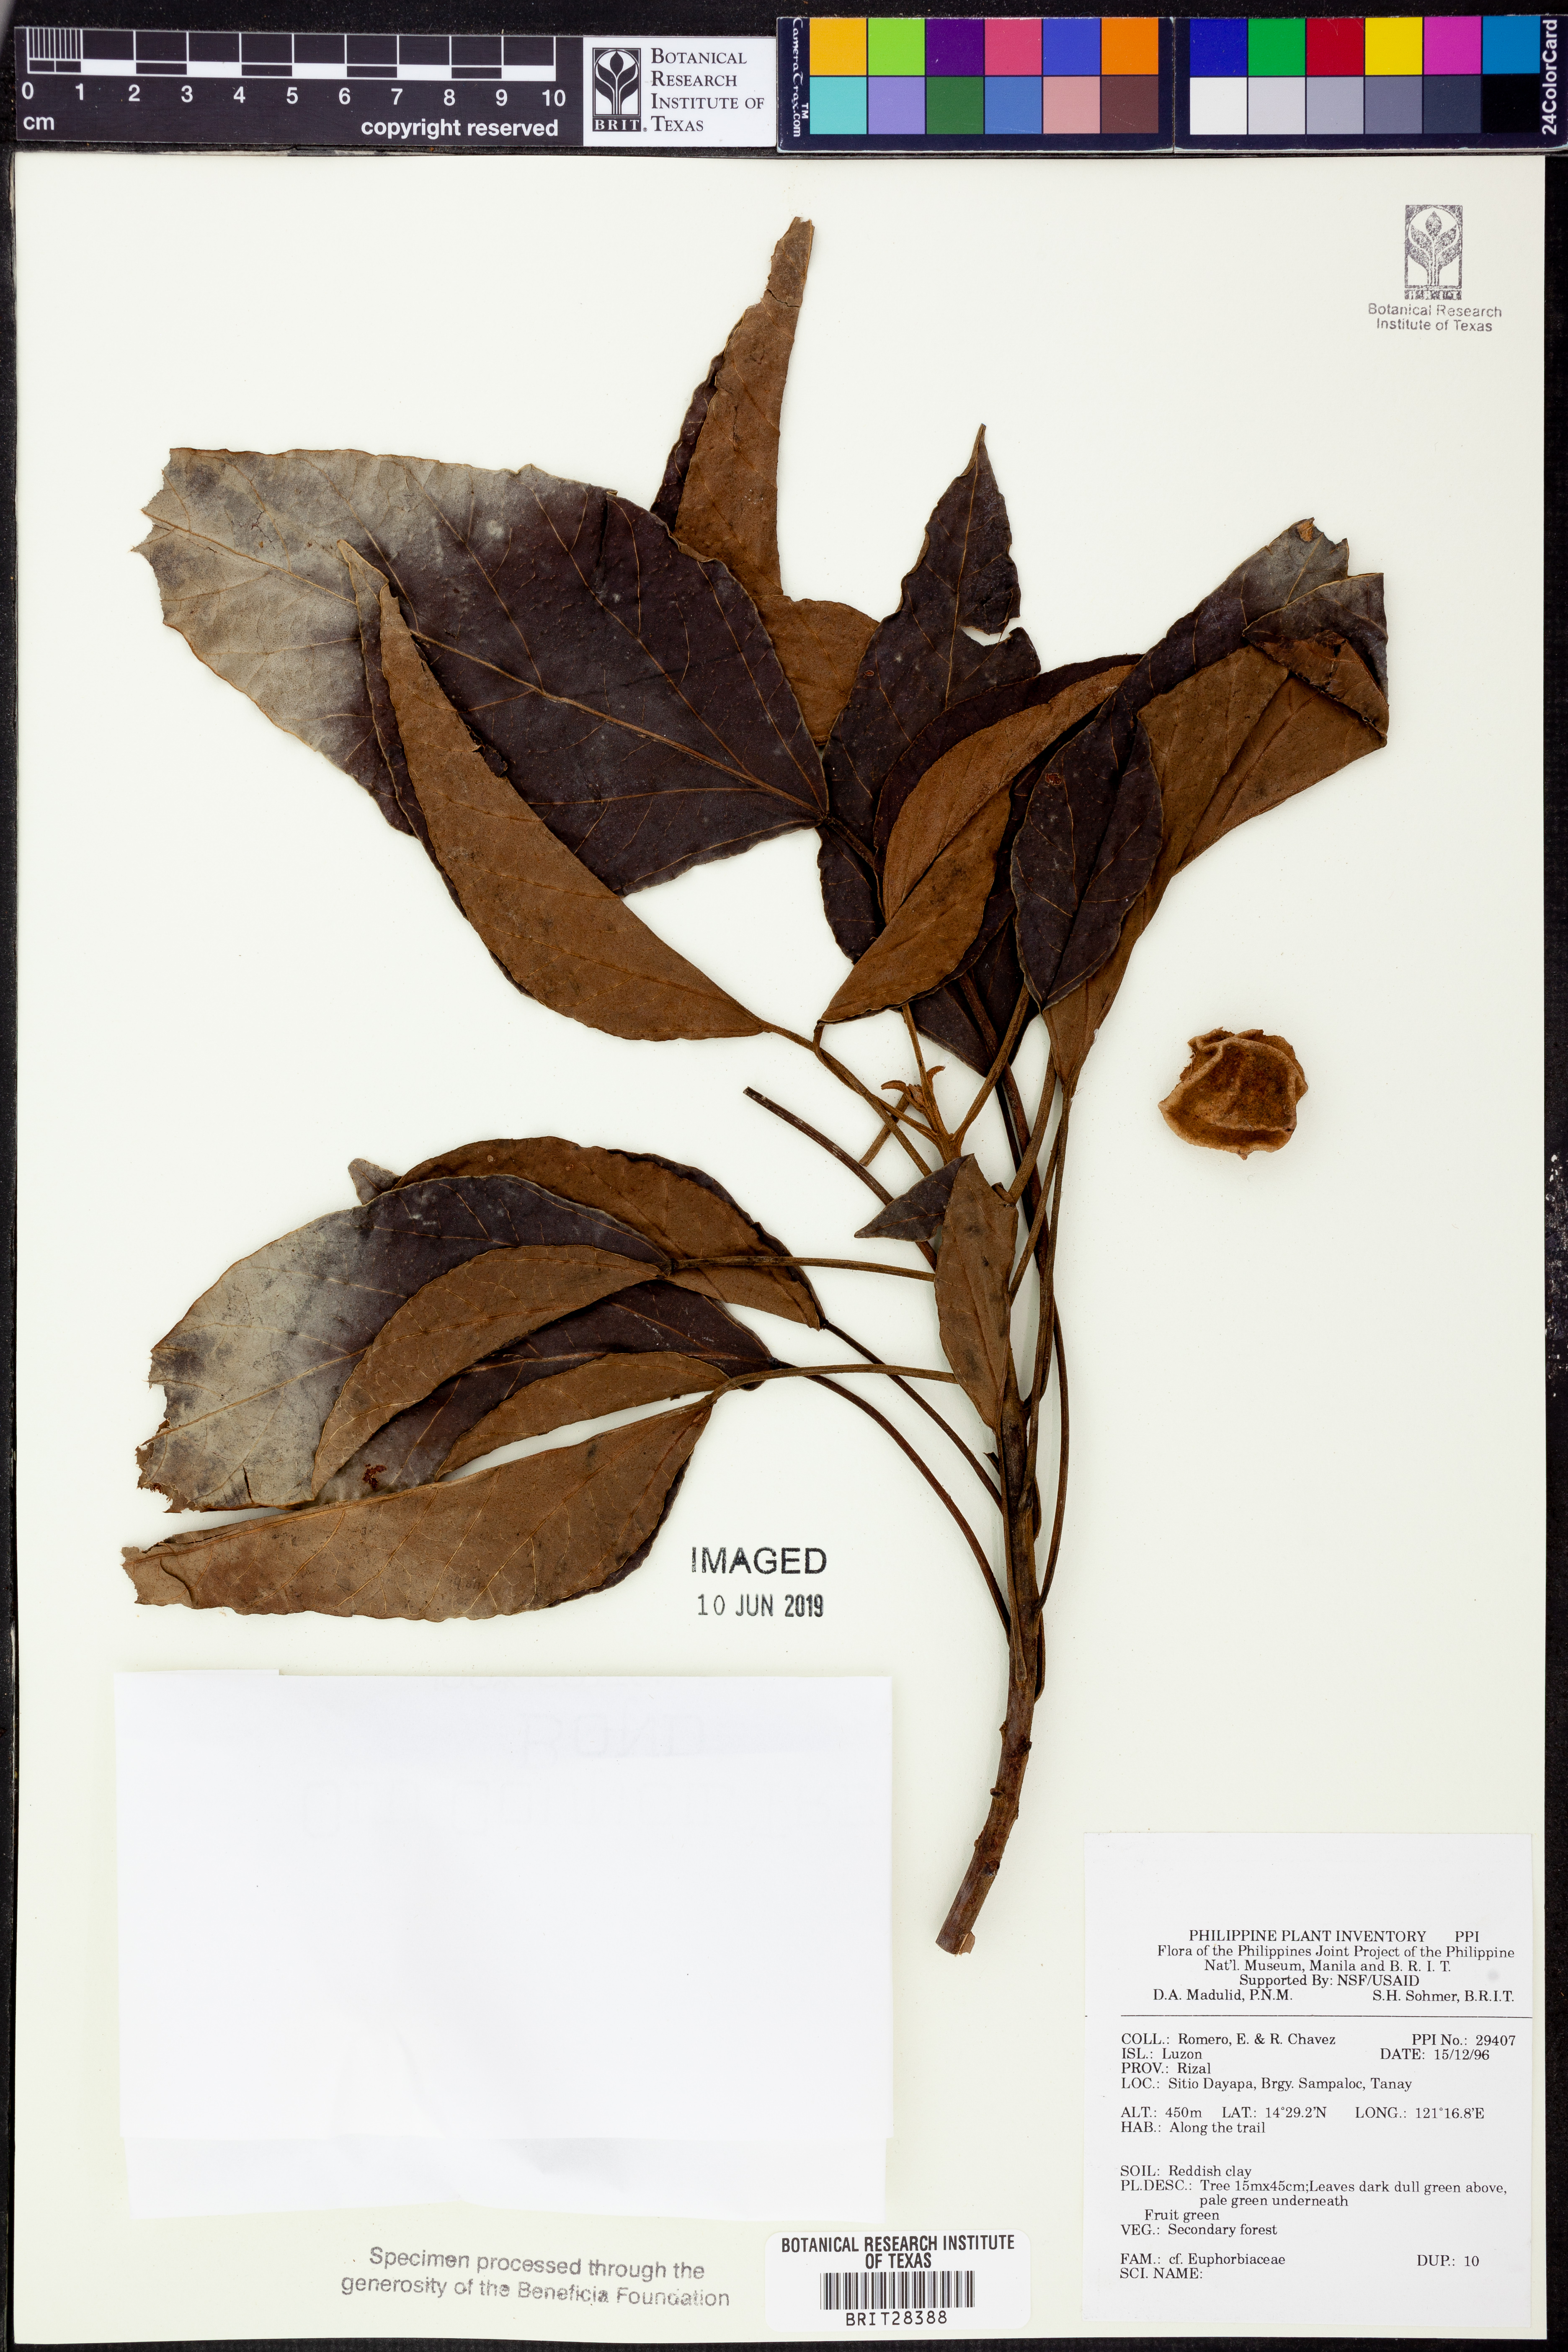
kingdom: Plantae
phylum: Tracheophyta
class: Magnoliopsida
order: Malpighiales
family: Euphorbiaceae
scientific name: Euphorbiaceae
